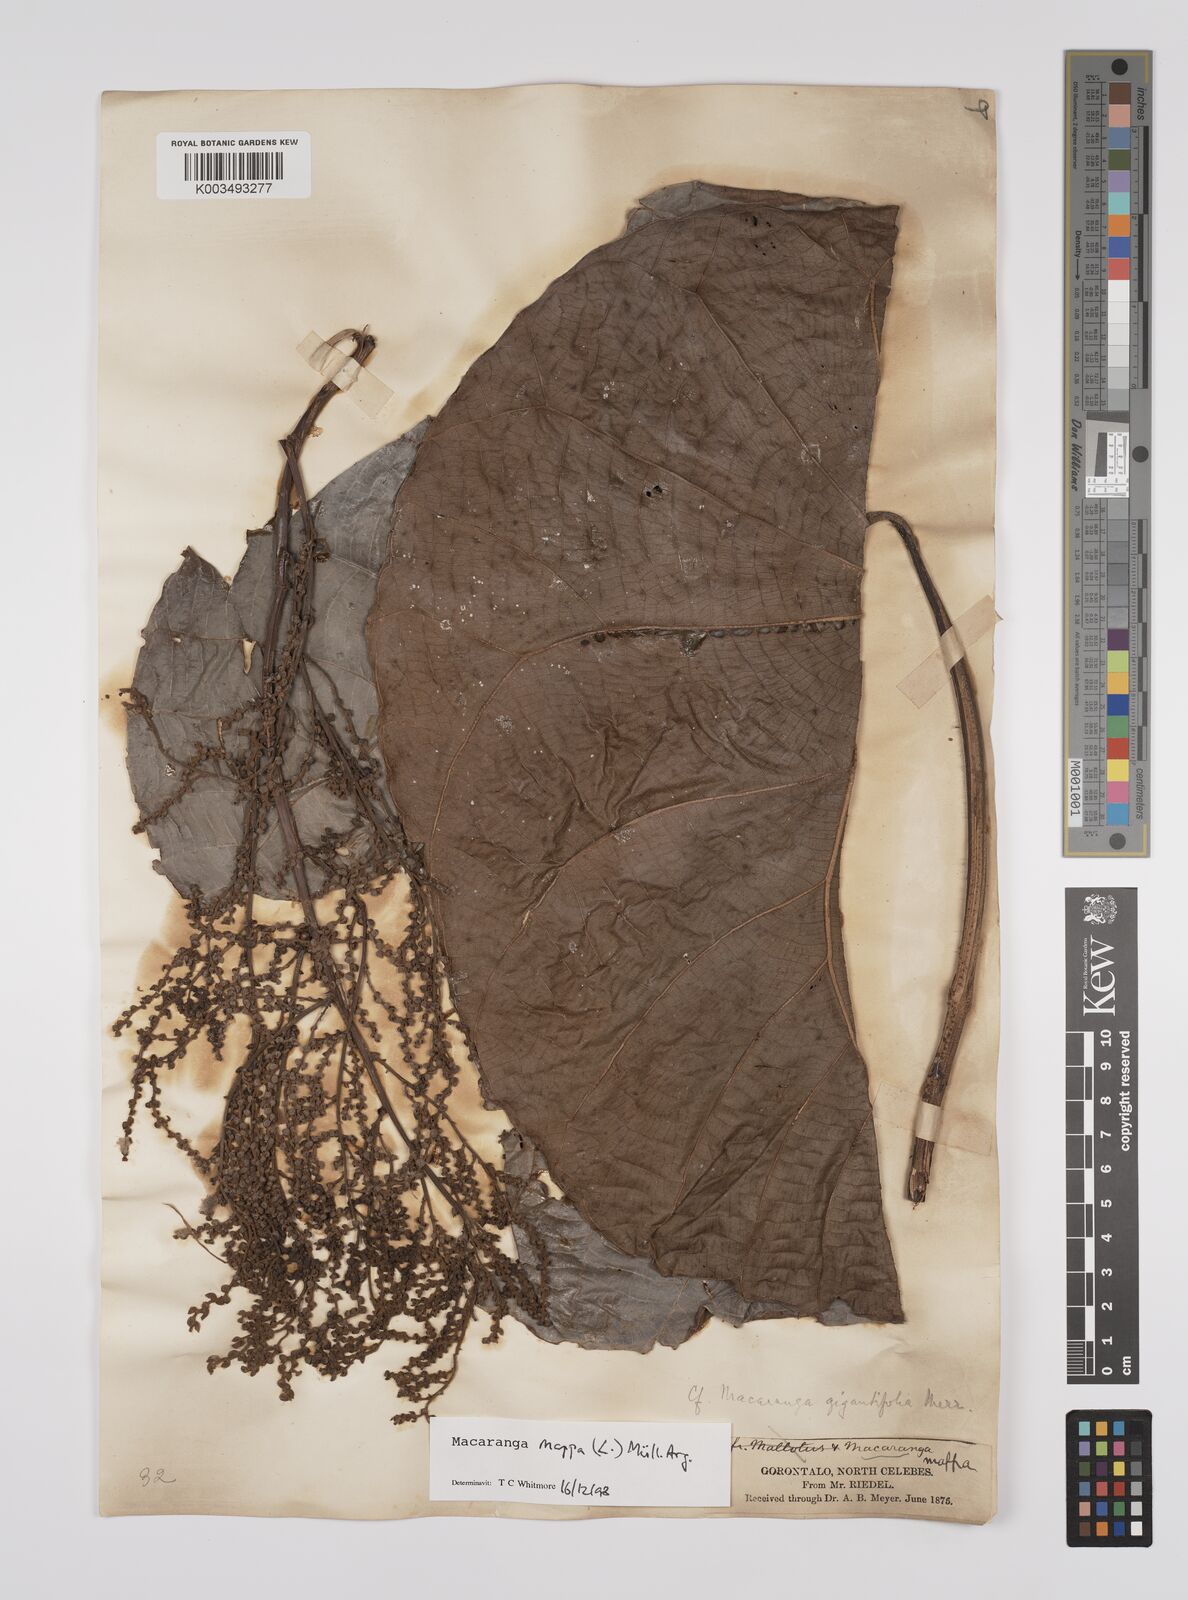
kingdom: Plantae
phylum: Tracheophyta
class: Magnoliopsida
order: Malpighiales
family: Euphorbiaceae
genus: Macaranga
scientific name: Macaranga mappa
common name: Pengua
